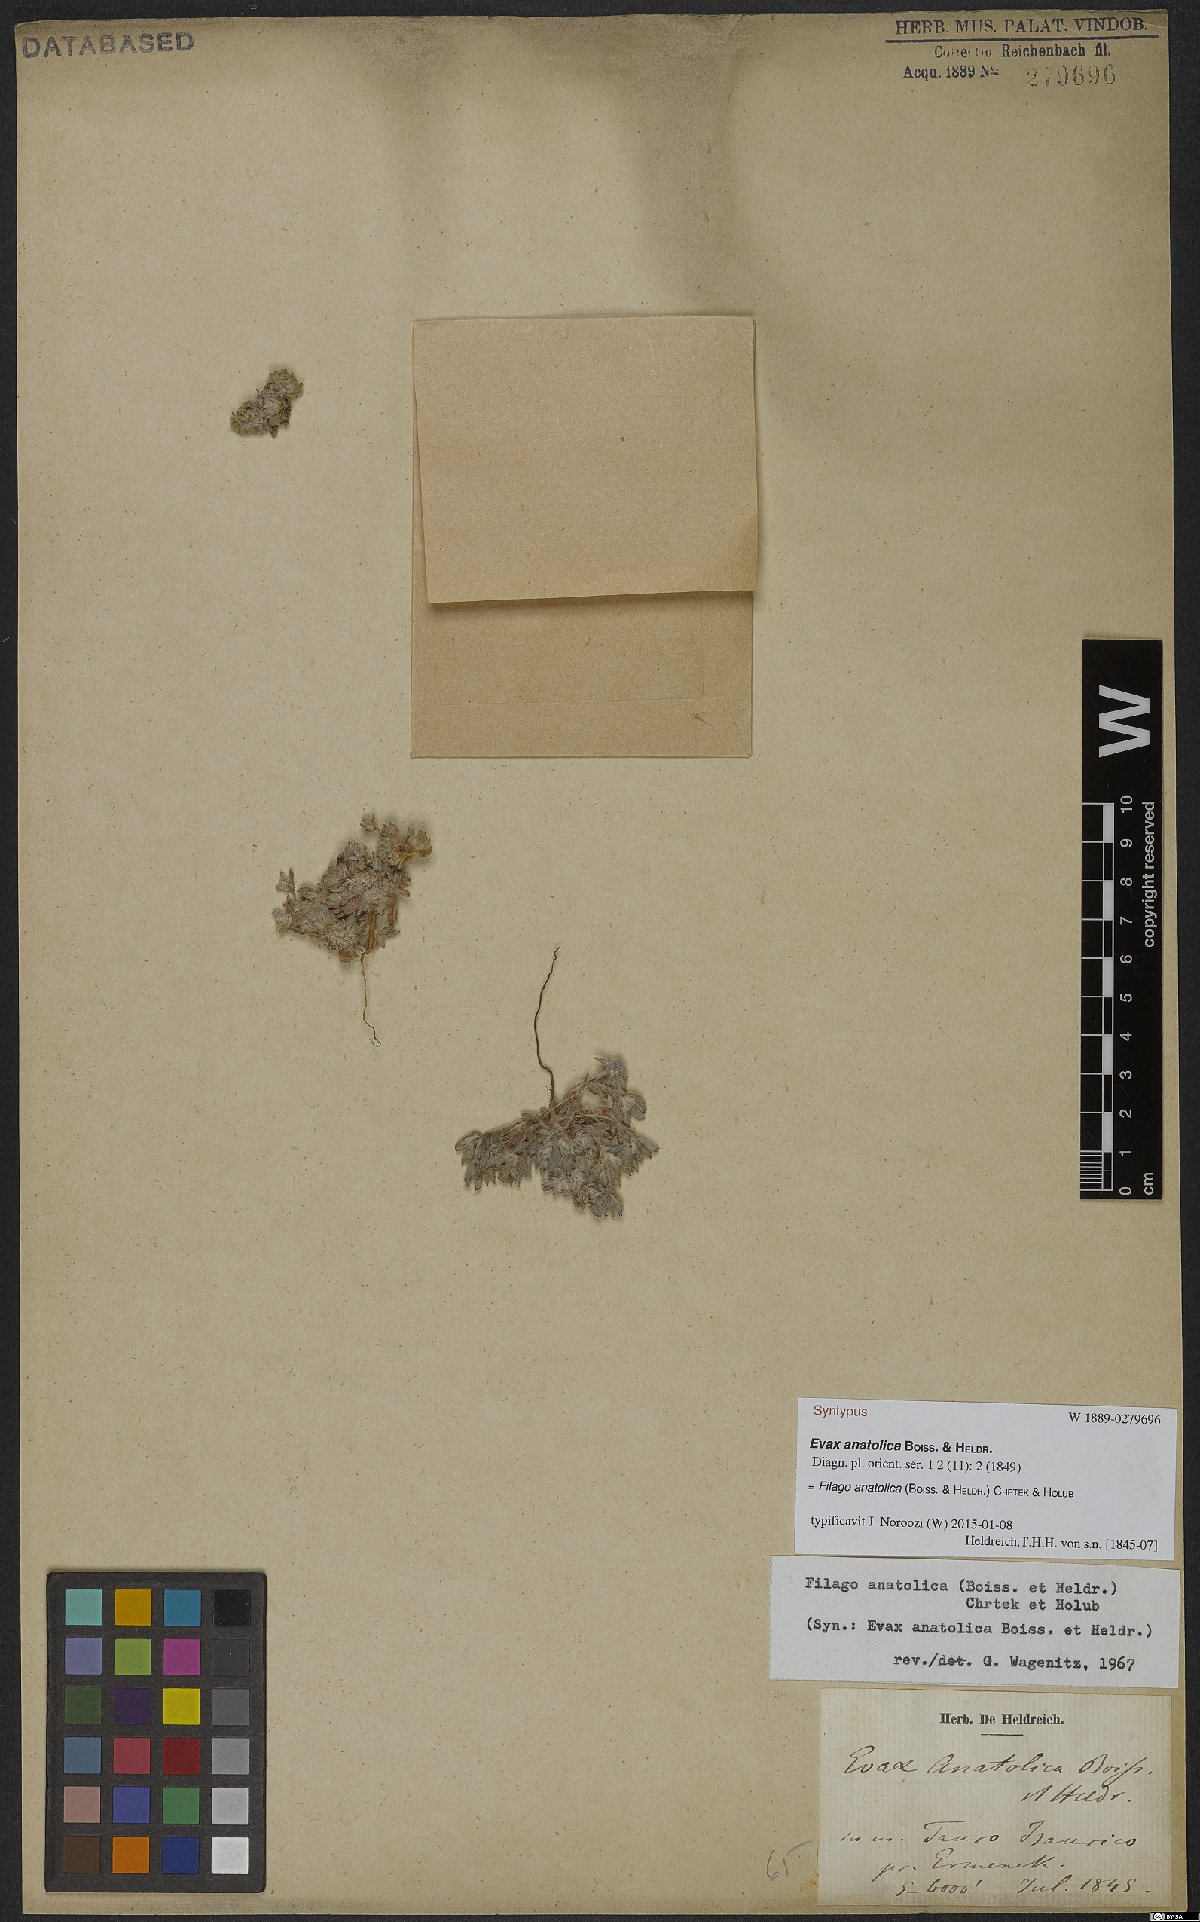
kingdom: Plantae
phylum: Tracheophyta
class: Magnoliopsida
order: Asterales
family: Asteraceae
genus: Filago
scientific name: Filago anatolica
